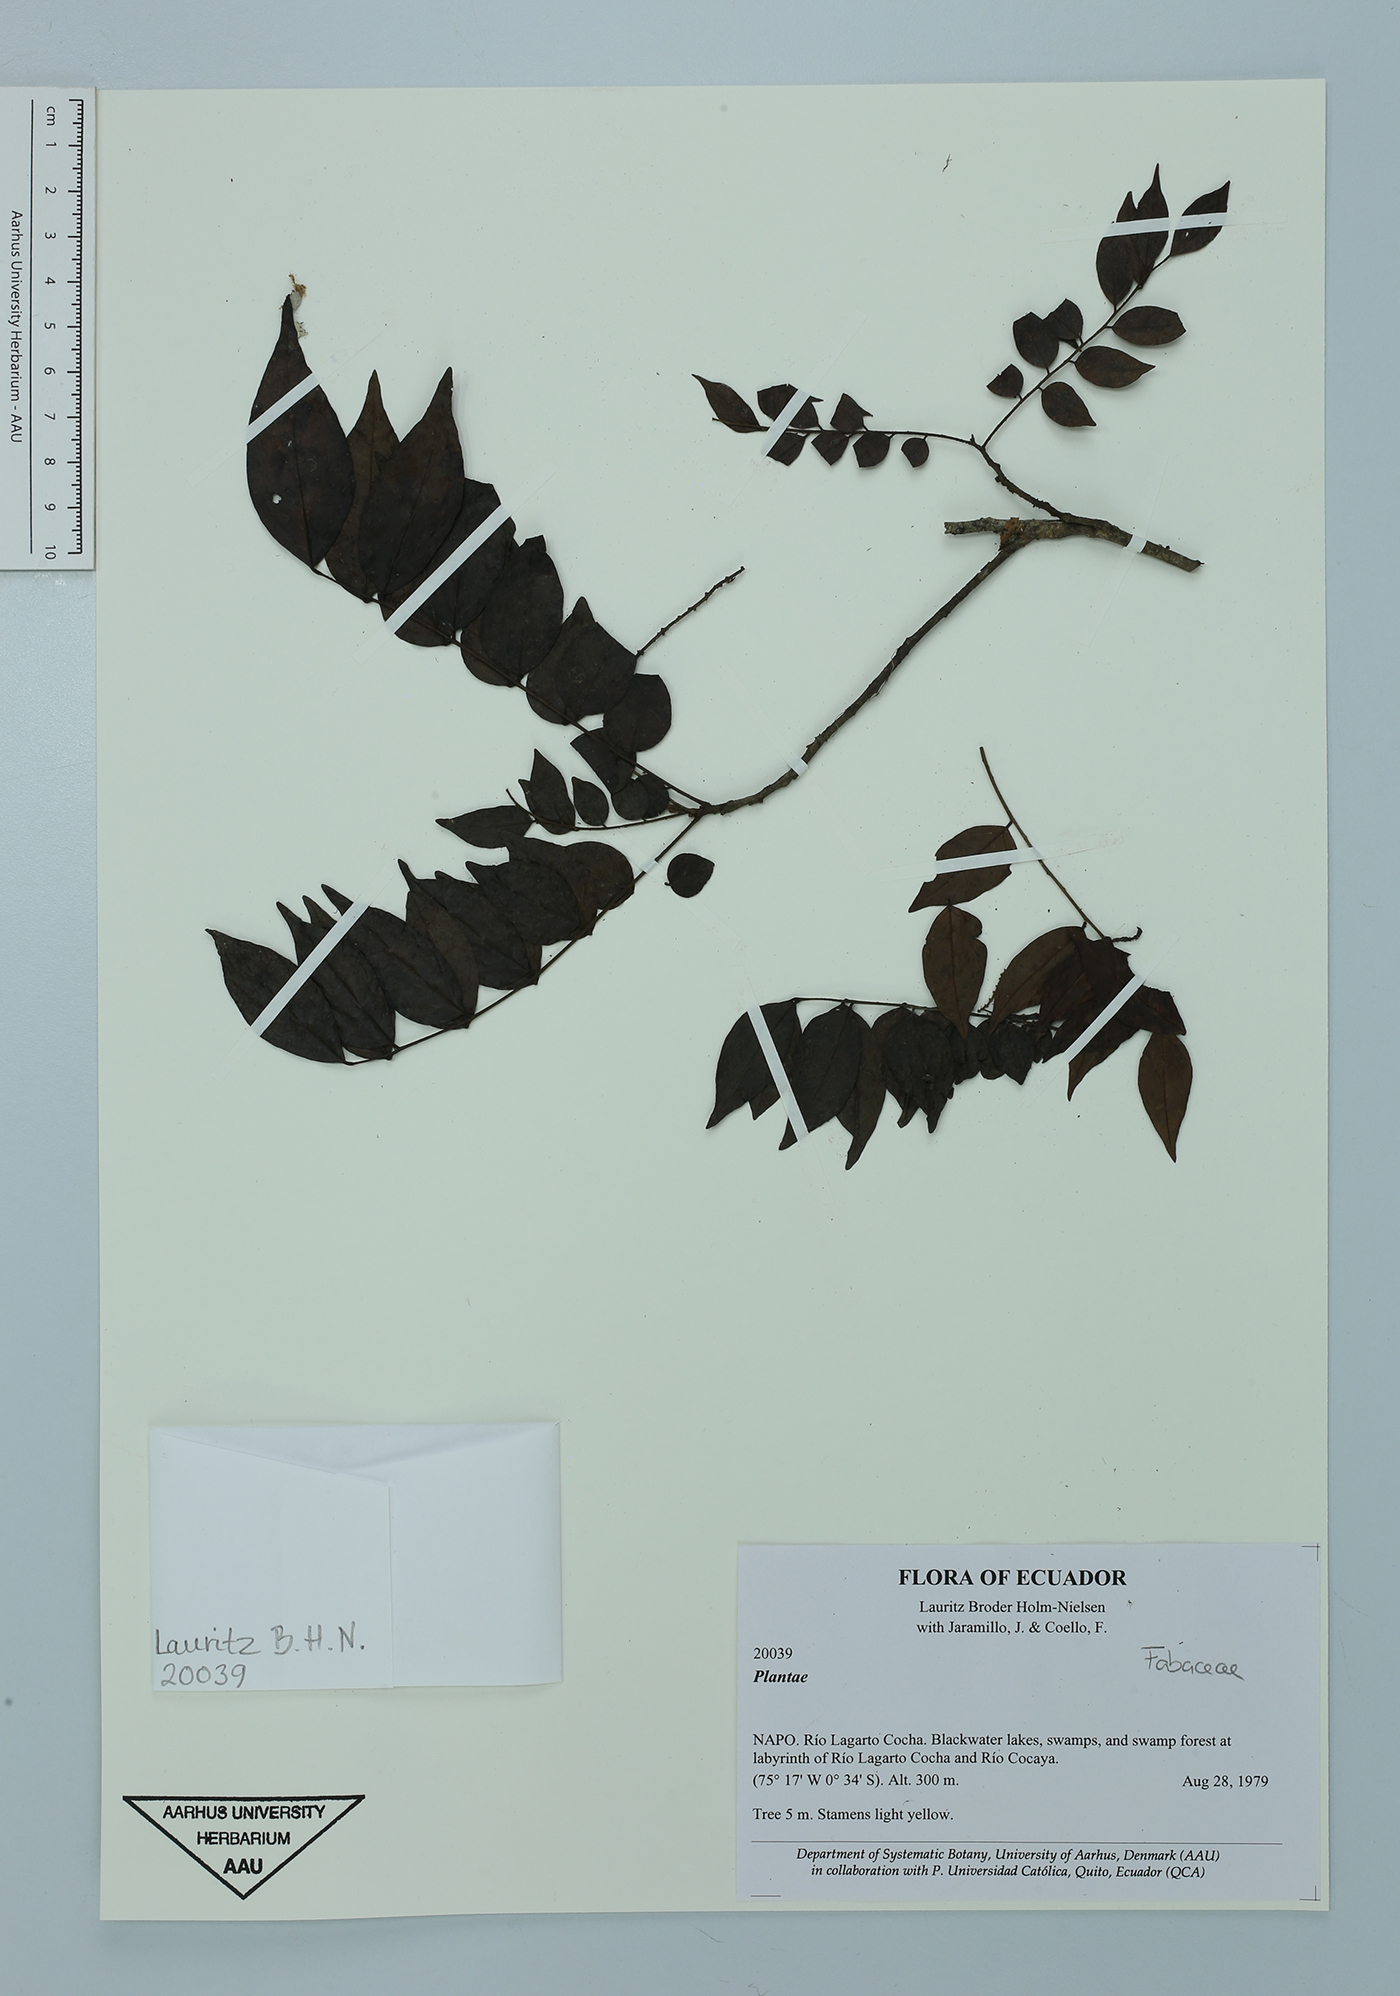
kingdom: Plantae
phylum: Tracheophyta
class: Magnoliopsida
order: Fabales
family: Fabaceae
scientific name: Fabaceae
